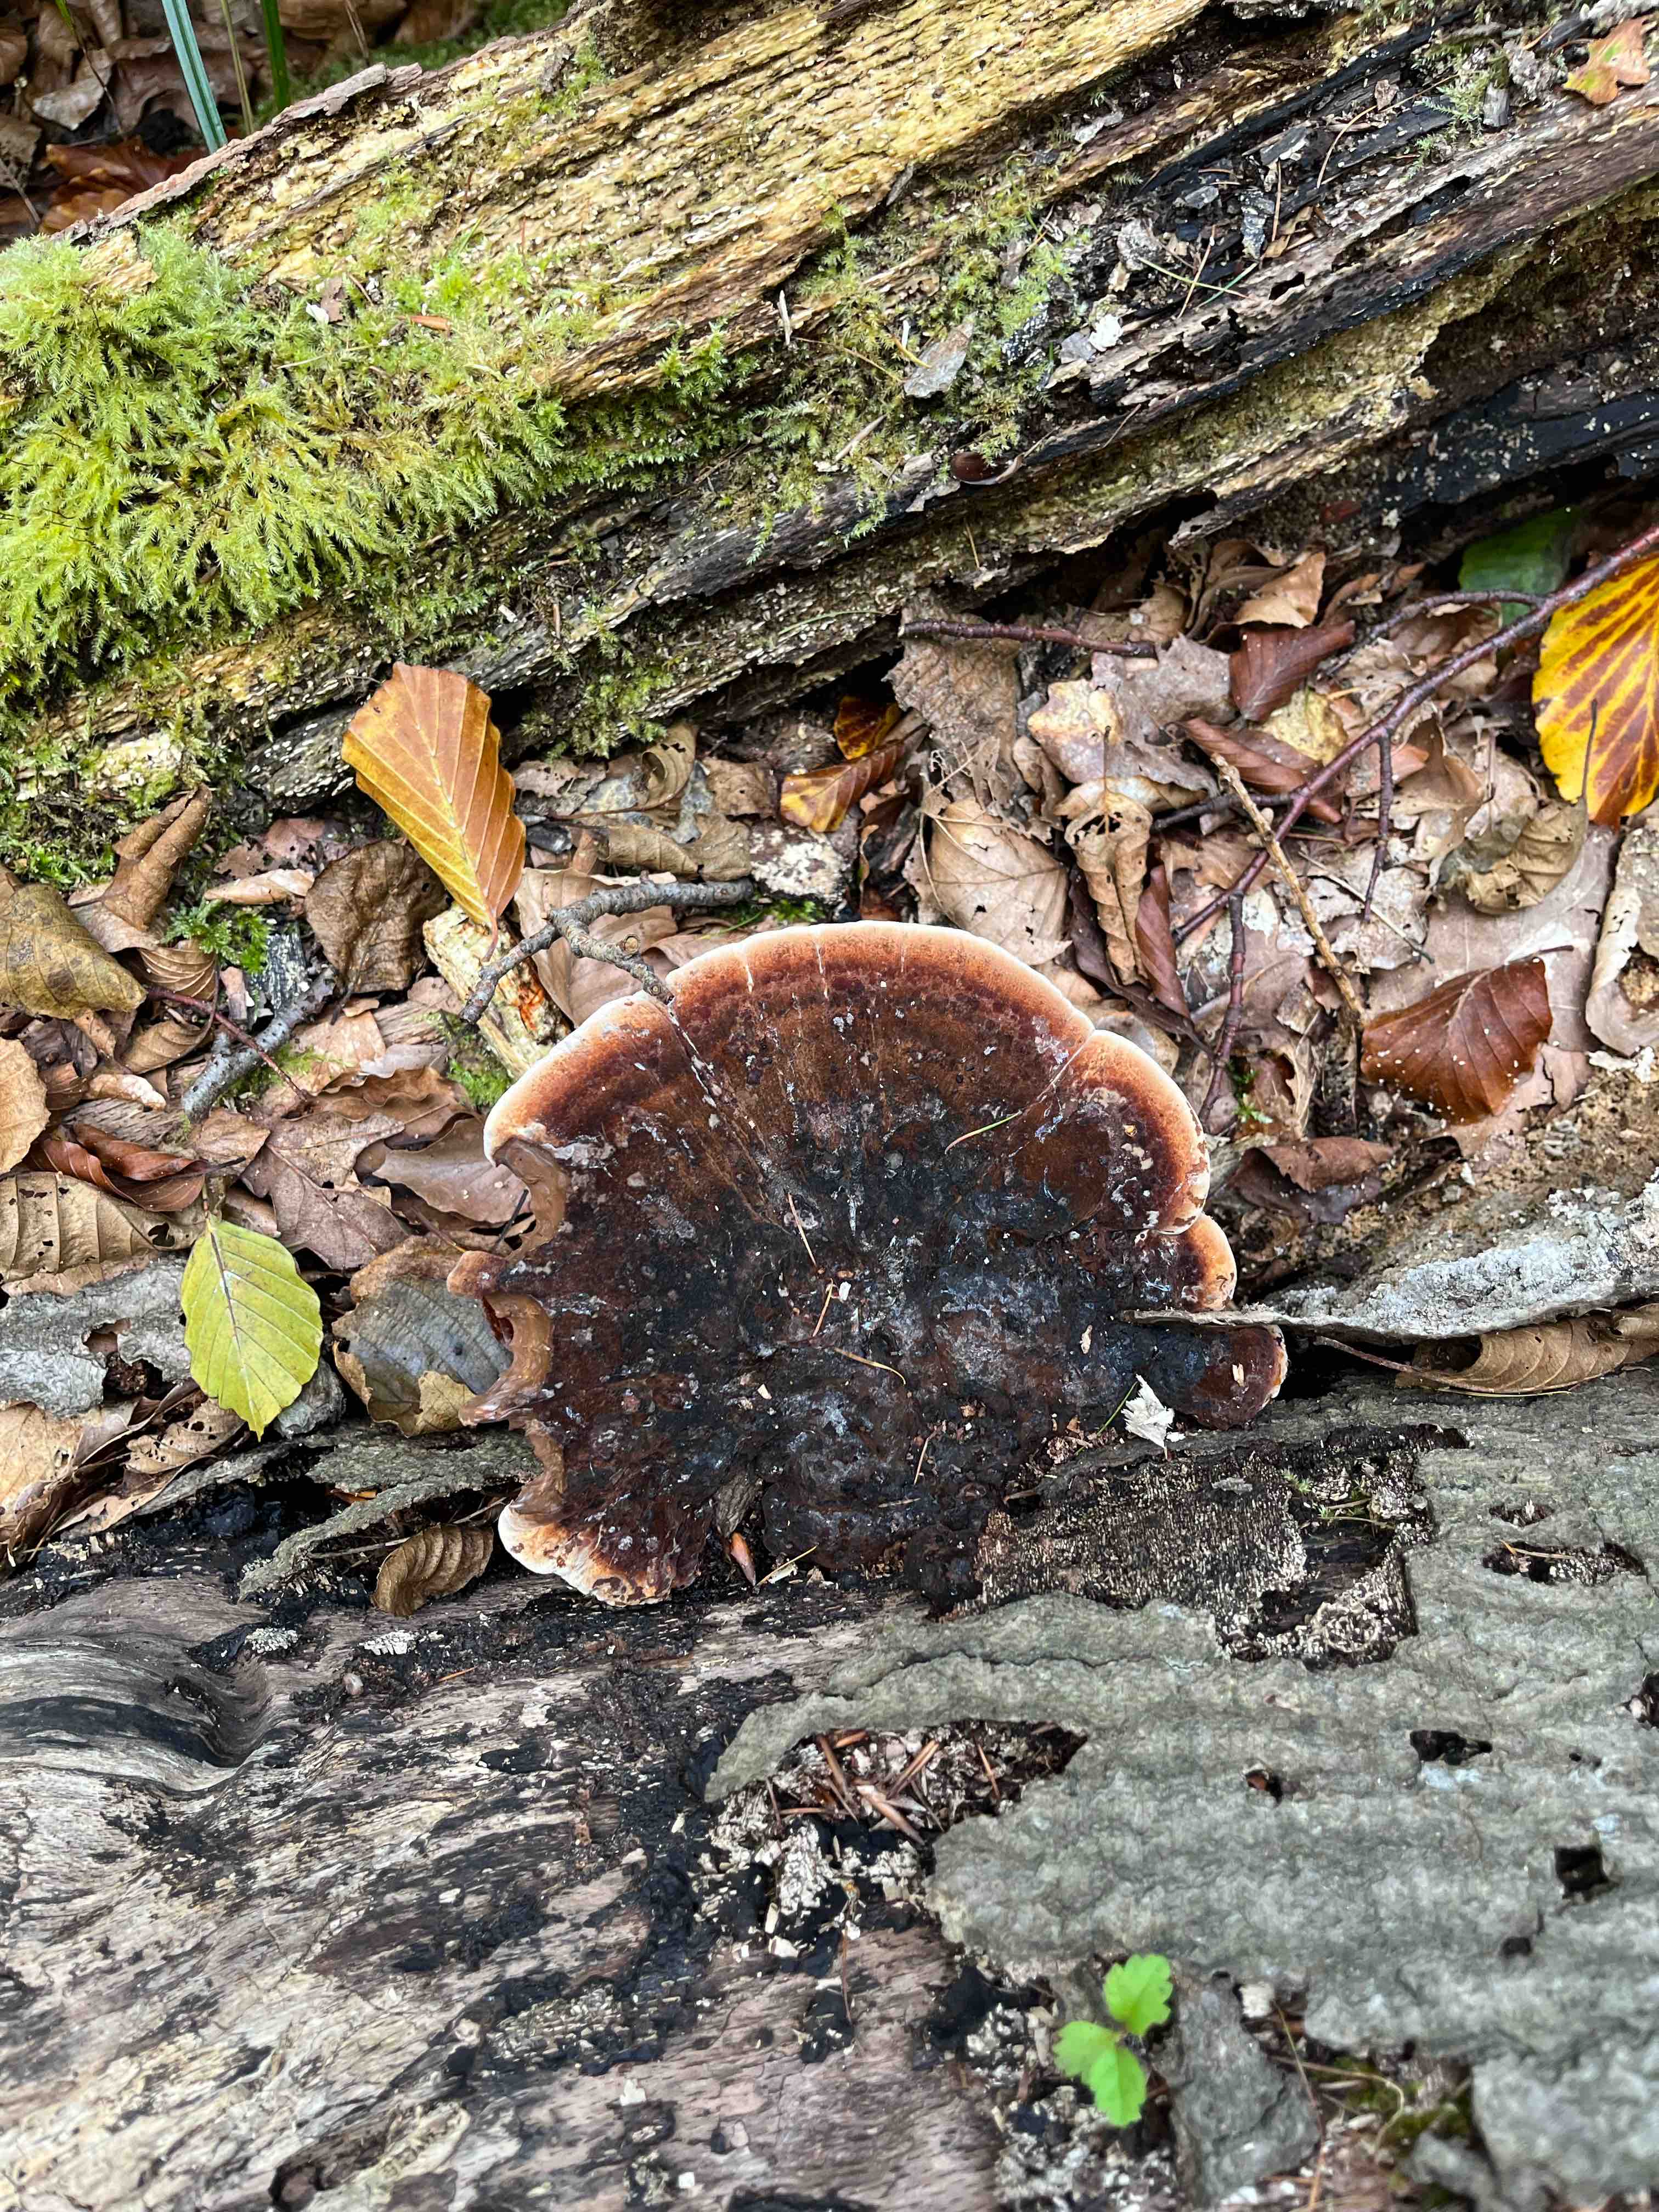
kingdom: Fungi
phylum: Basidiomycota
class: Agaricomycetes
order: Polyporales
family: Ischnodermataceae
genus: Ischnoderma
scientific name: Ischnoderma resinosum
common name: løv-tjæreporesvamp
